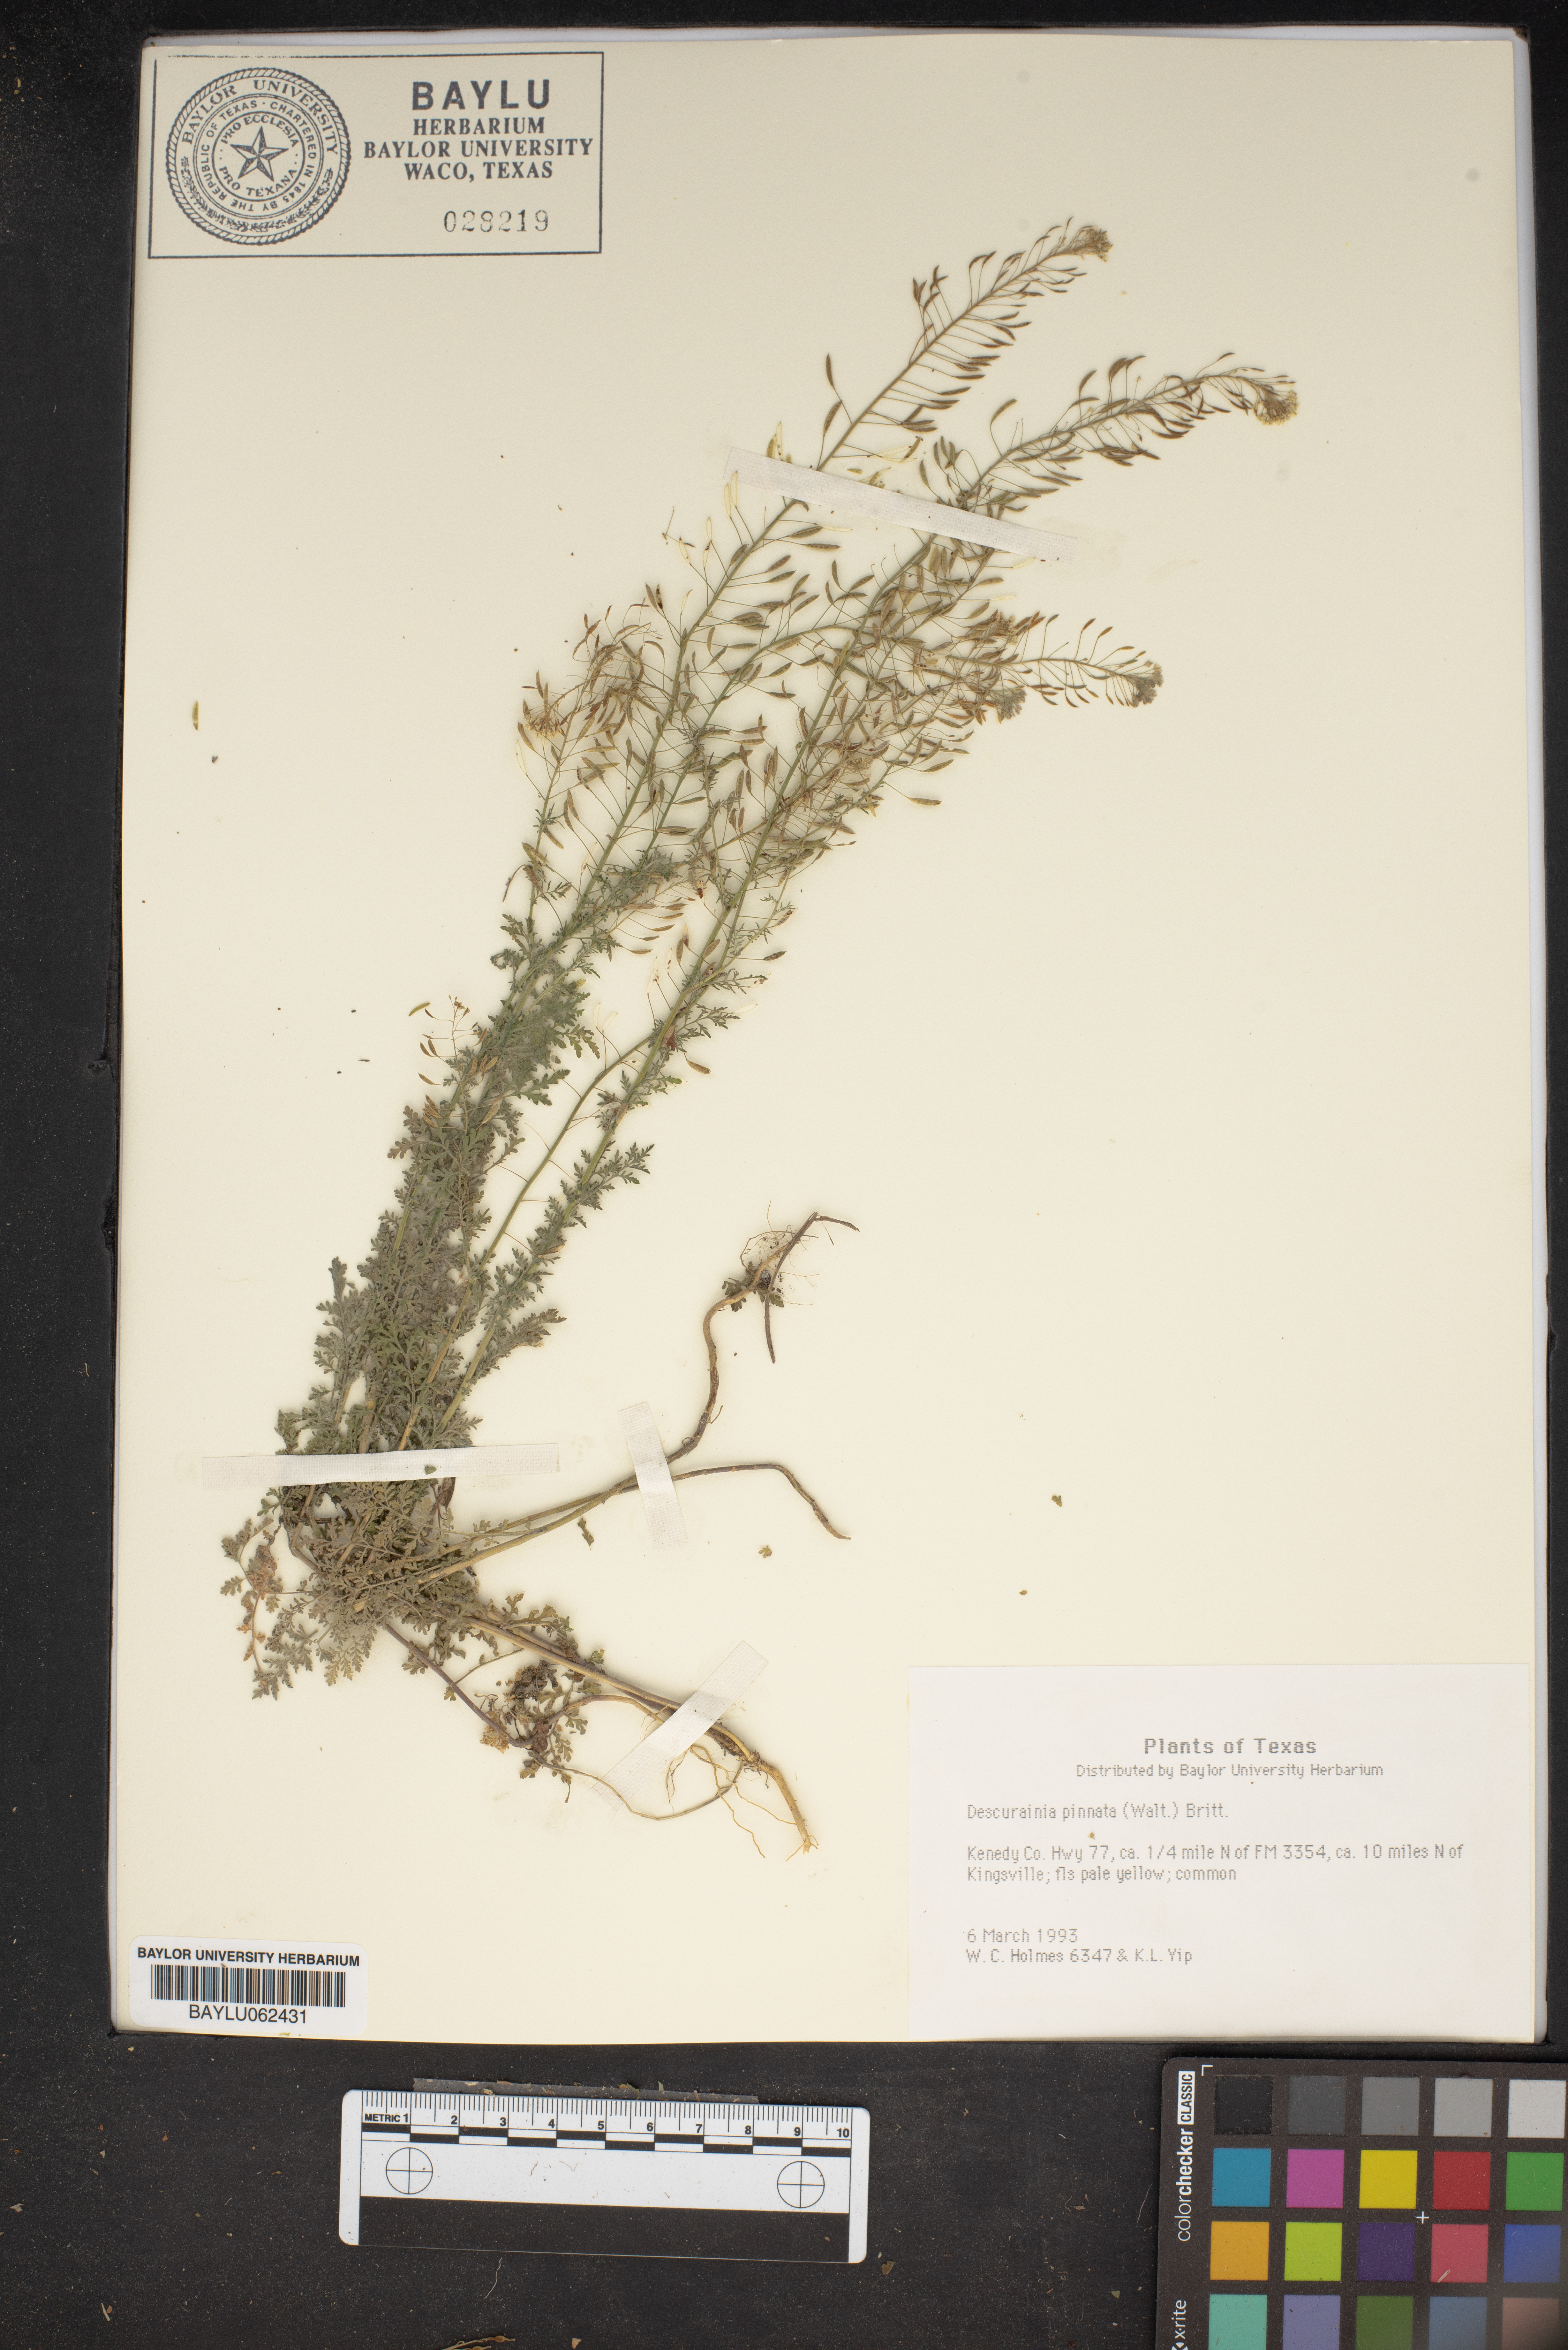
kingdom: Plantae
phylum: Tracheophyta
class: Magnoliopsida
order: Brassicales
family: Brassicaceae
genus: Descurainia
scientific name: Descurainia pinnata
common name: Western tansy mustard
